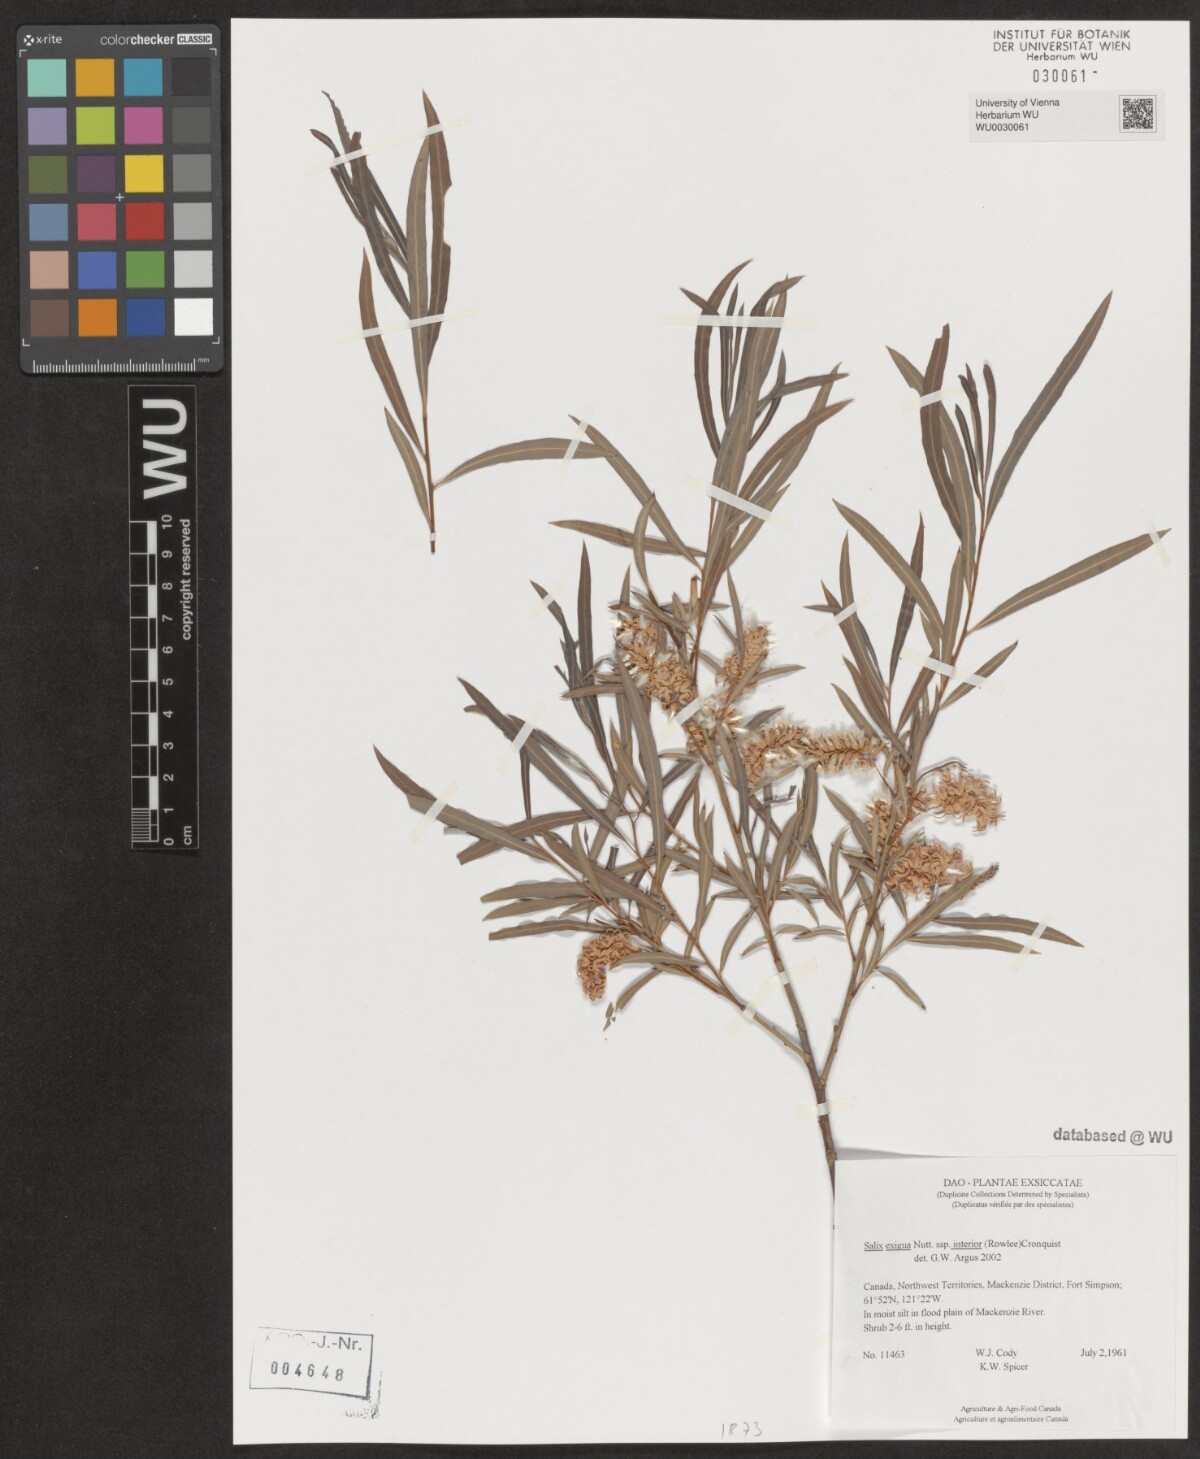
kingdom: Plantae
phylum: Tracheophyta
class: Magnoliopsida
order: Malpighiales
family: Salicaceae
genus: Salix
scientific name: Salix interior
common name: Sandbar willow
